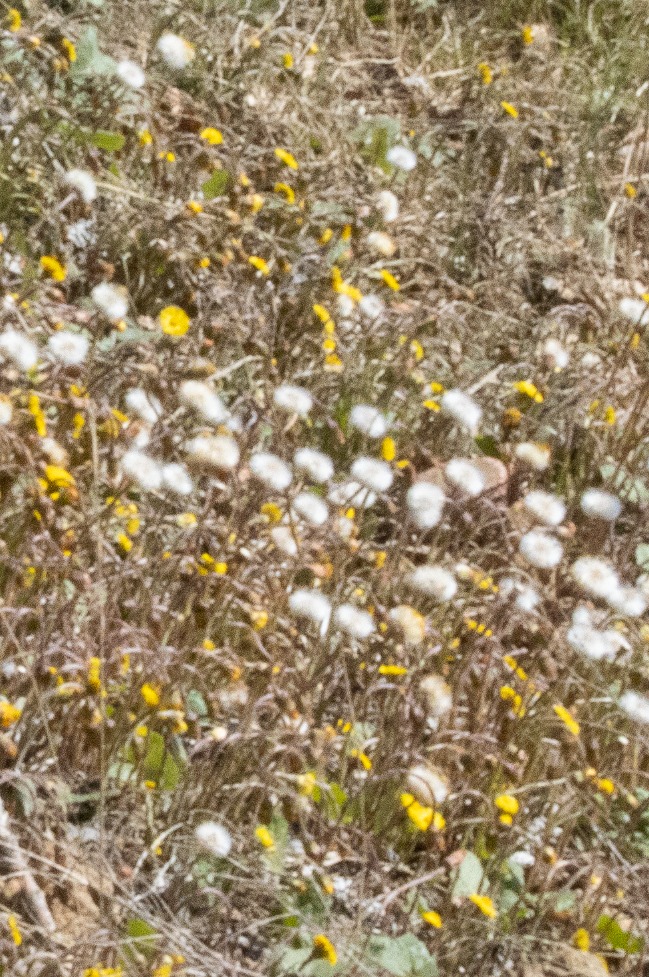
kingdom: Plantae
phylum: Tracheophyta
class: Magnoliopsida
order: Asterales
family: Asteraceae
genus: Tussilago
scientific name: Tussilago farfara
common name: Følfod
